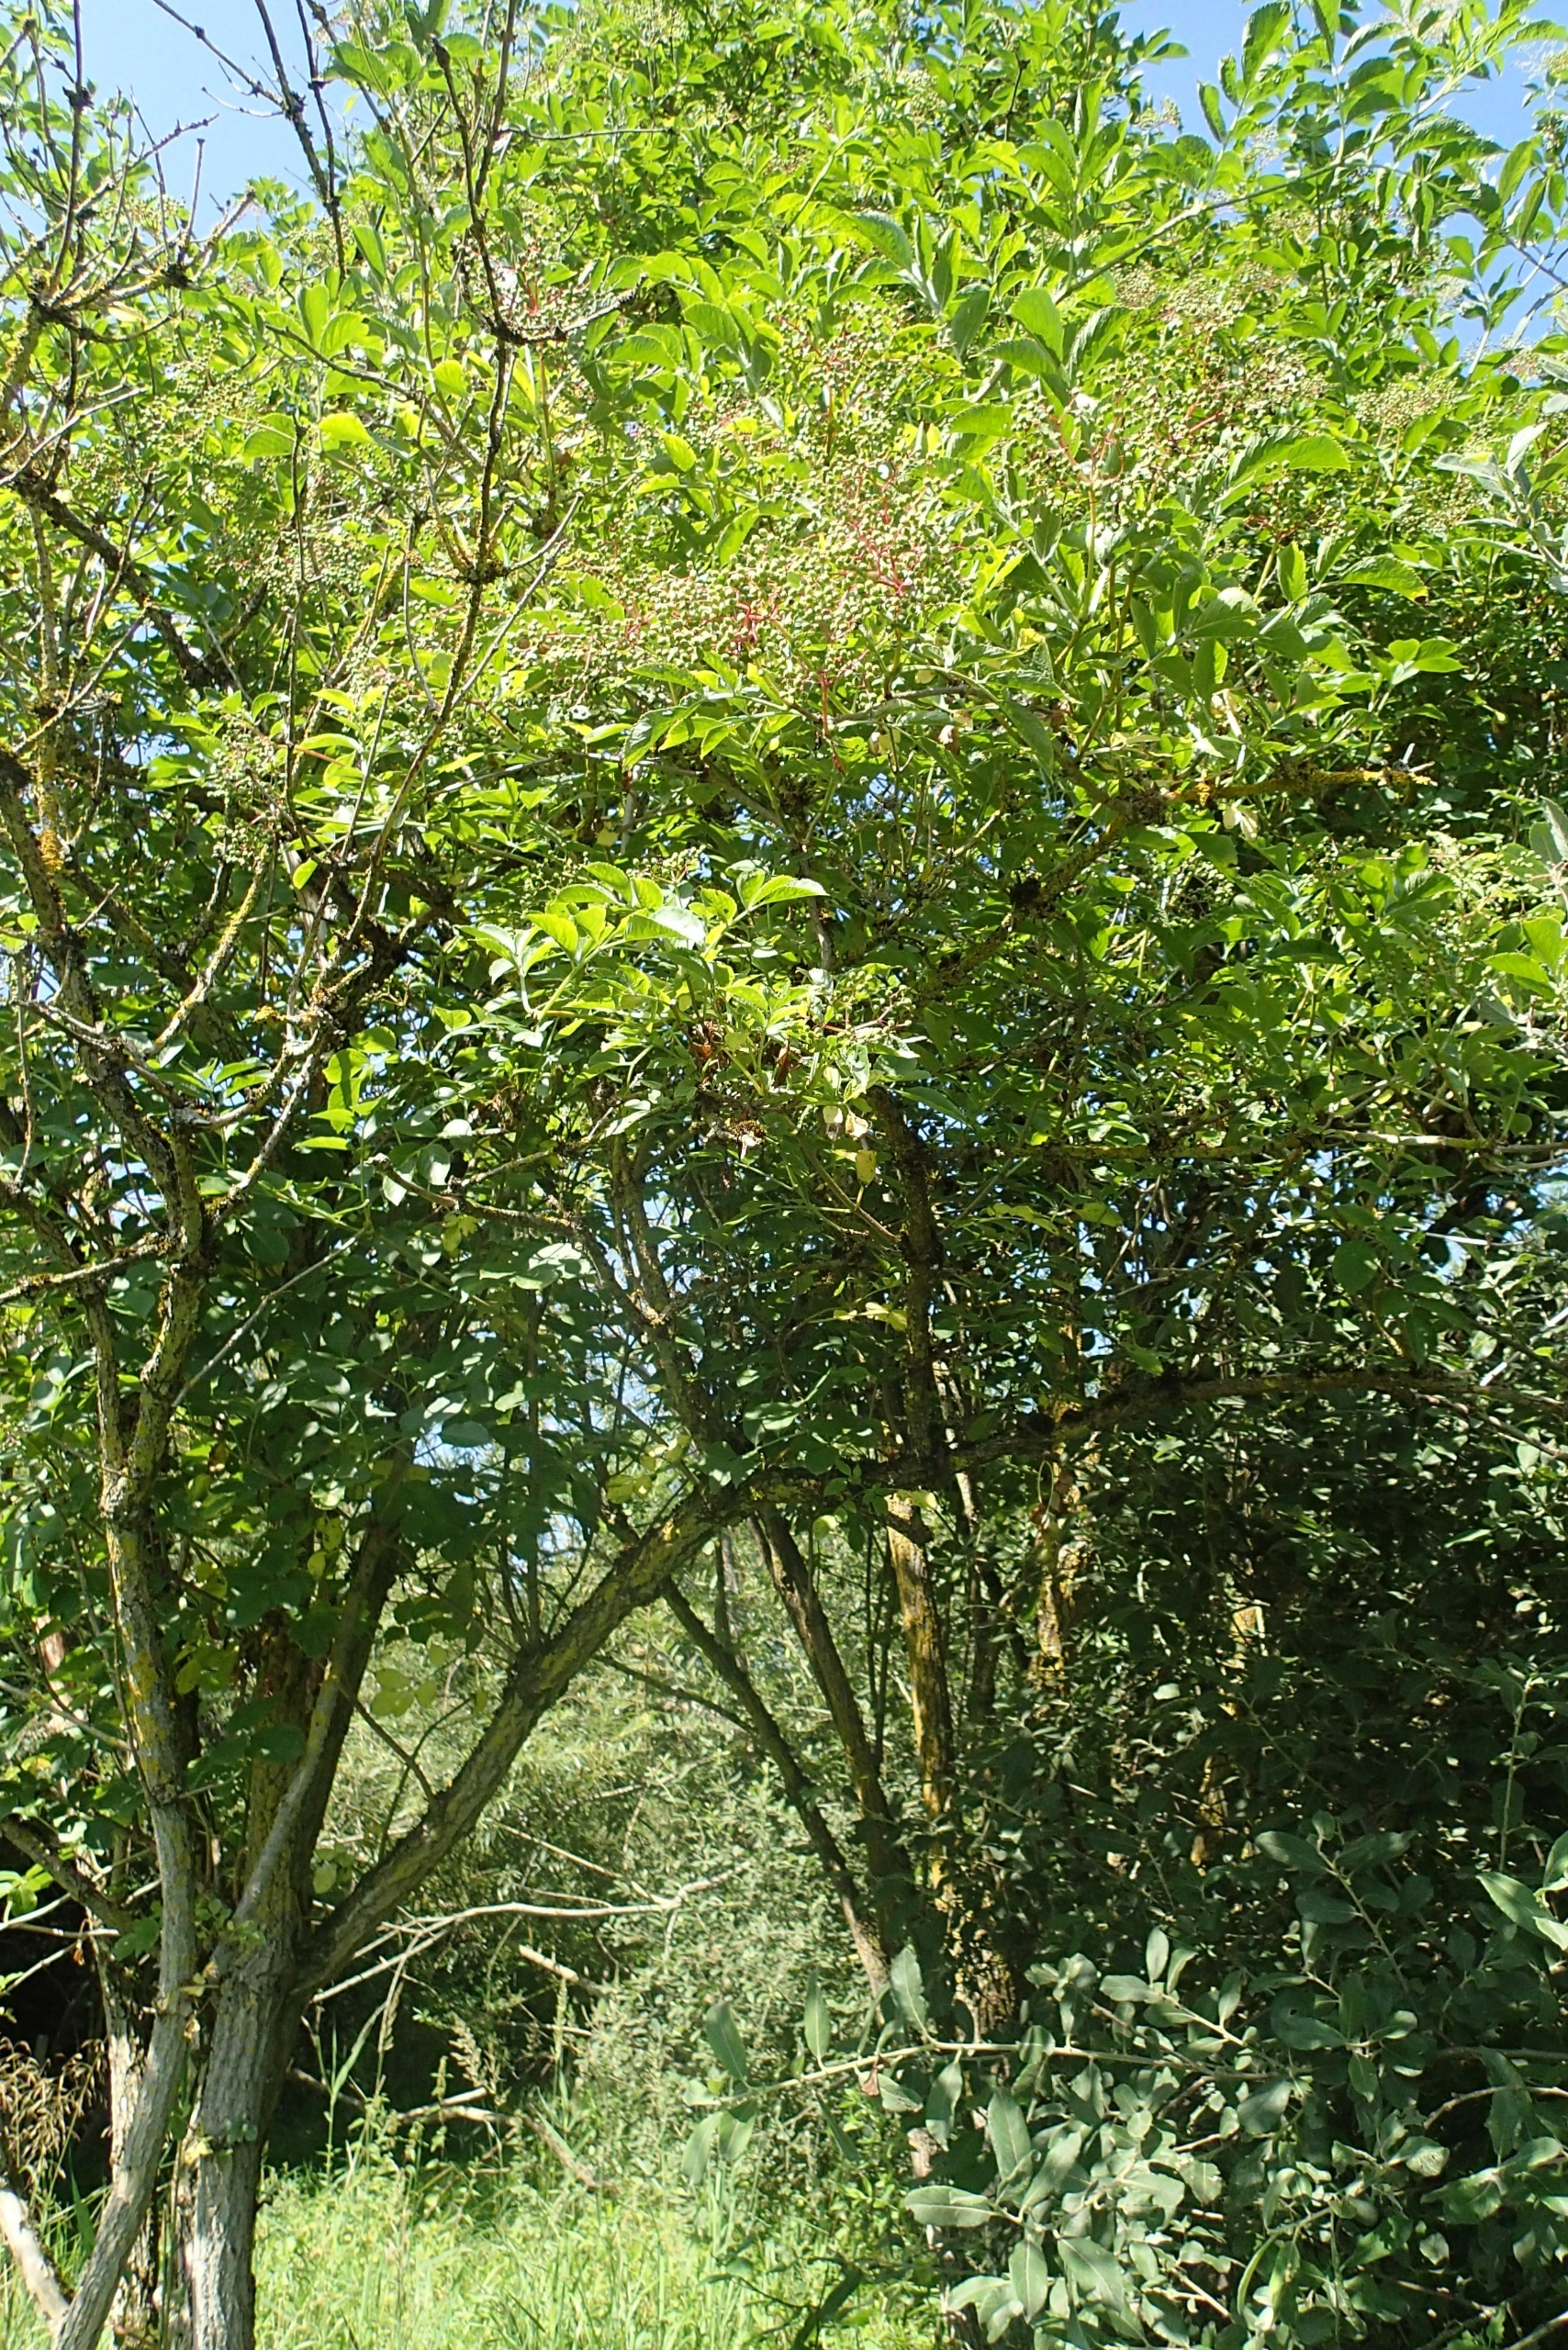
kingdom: Plantae
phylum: Tracheophyta
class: Magnoliopsida
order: Dipsacales
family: Viburnaceae
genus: Sambucus
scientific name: Sambucus nigra
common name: Almindelig hyld
